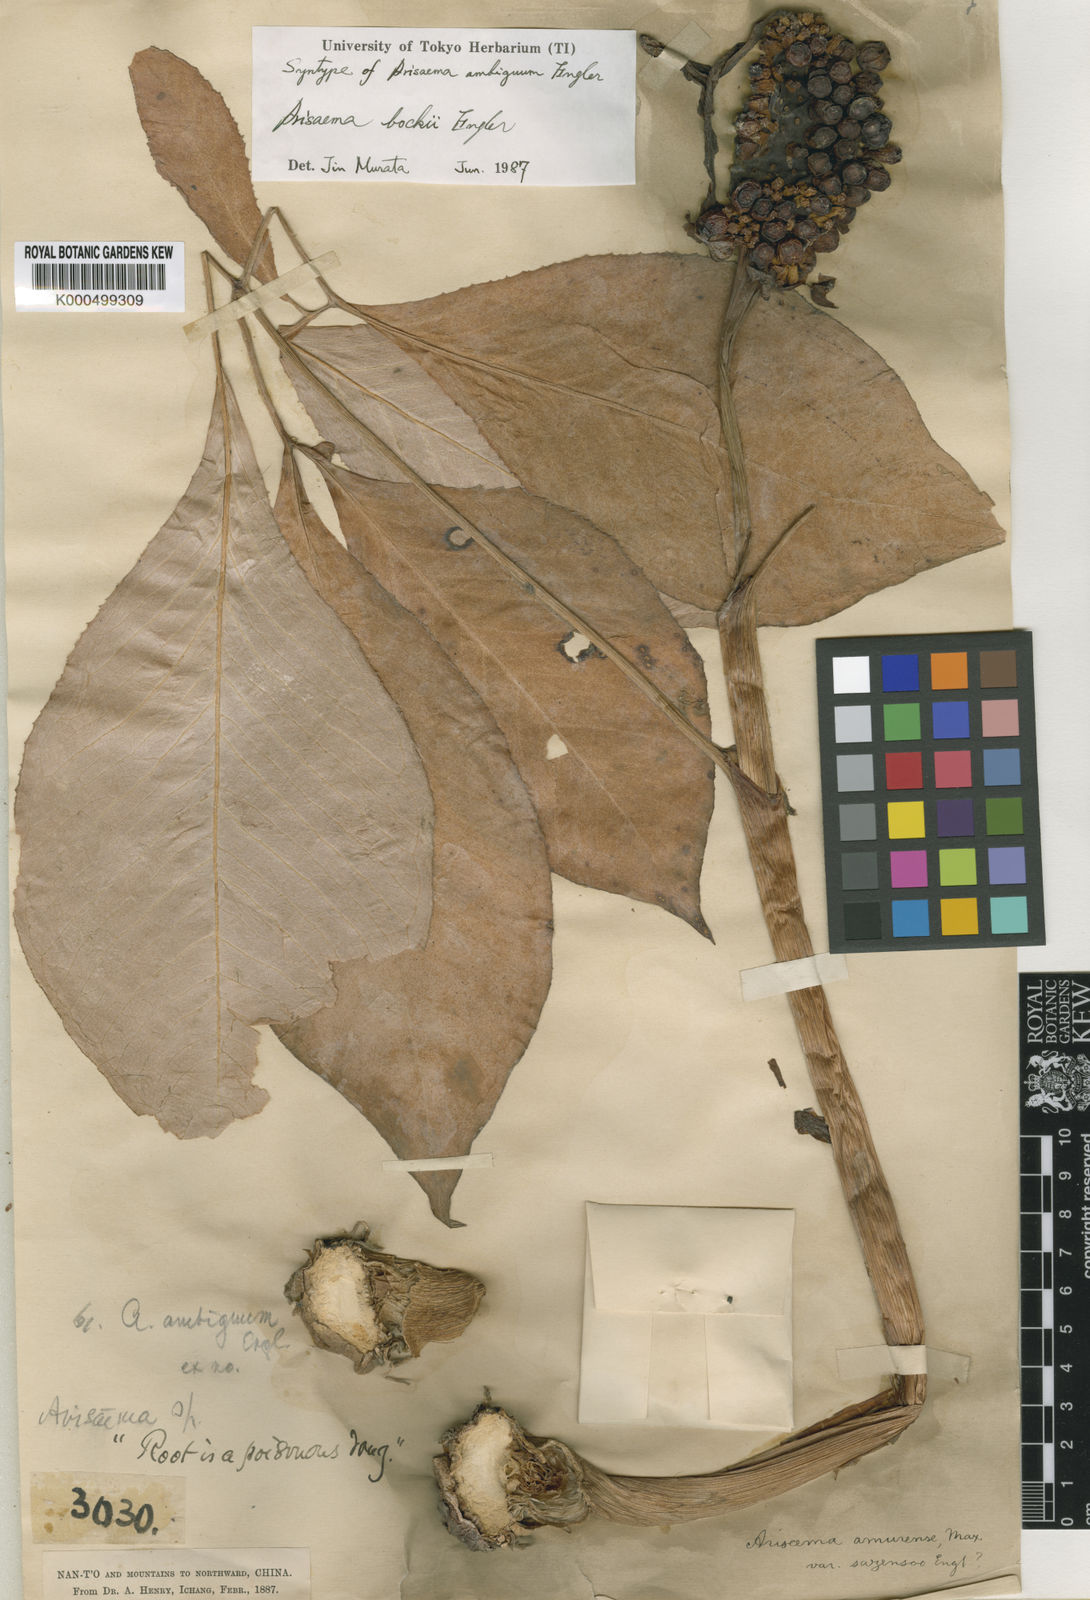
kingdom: Plantae
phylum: Tracheophyta
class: Liliopsida
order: Alismatales
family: Araceae
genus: Arisaema
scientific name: Arisaema bockii
